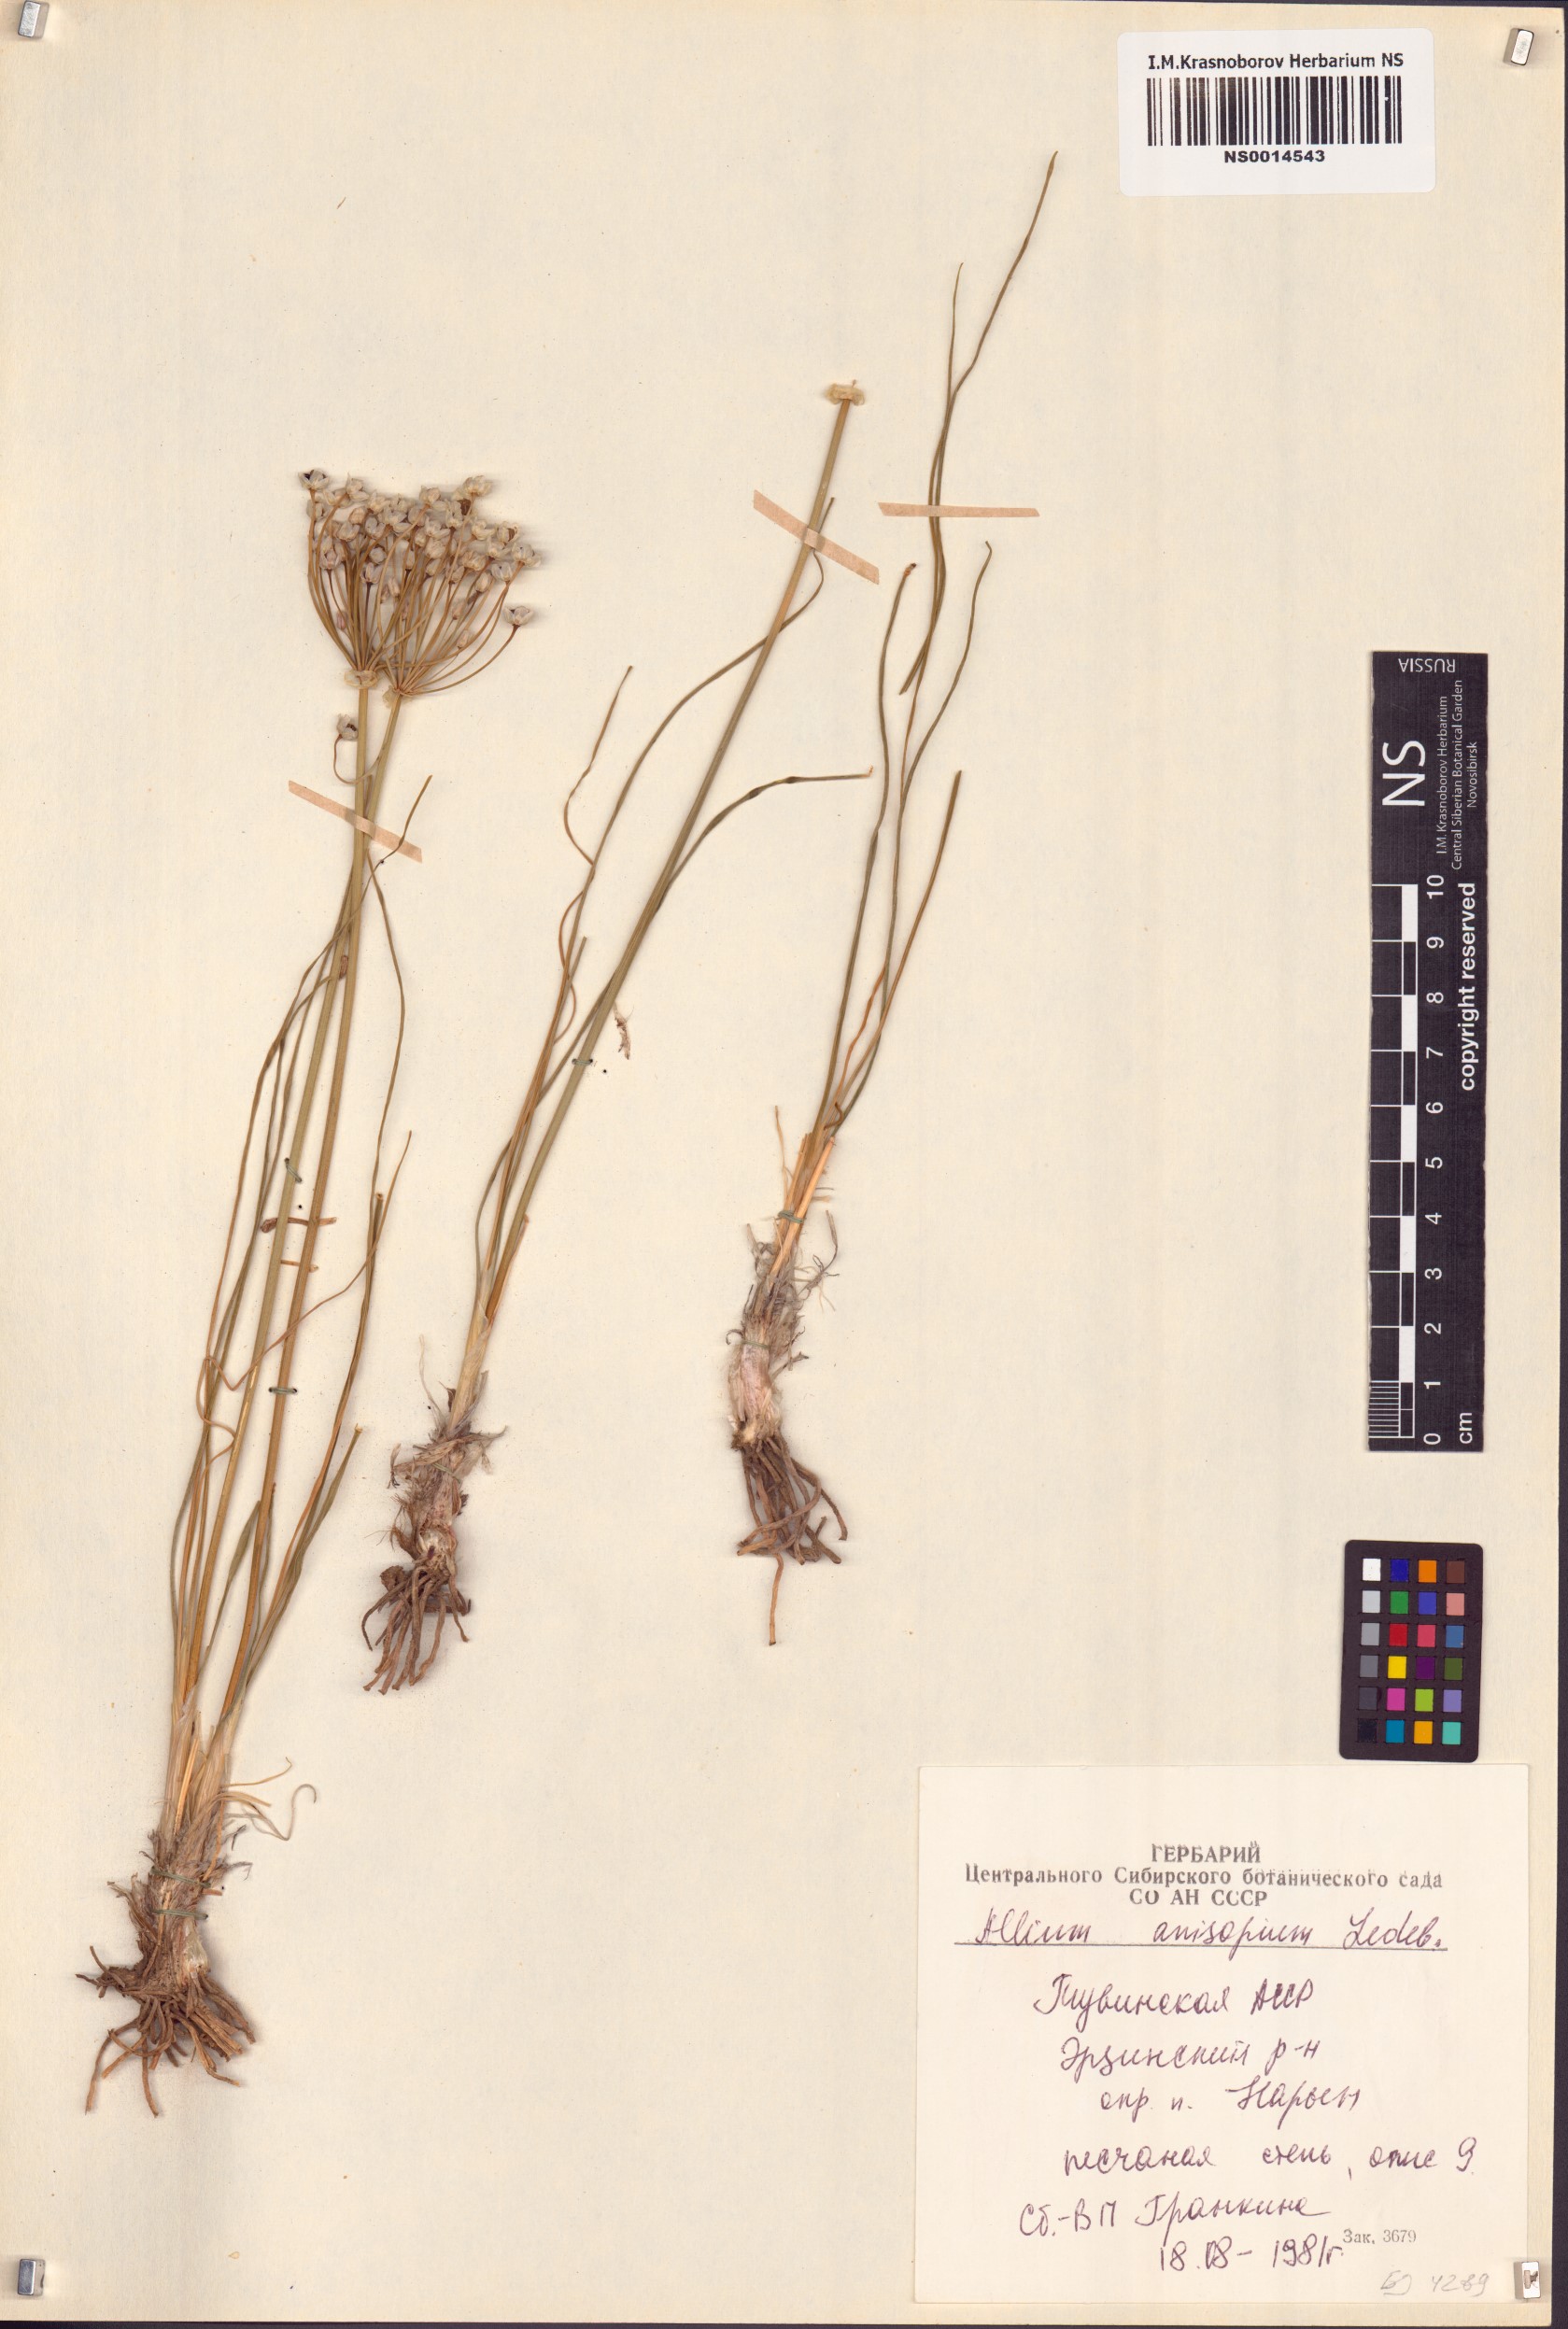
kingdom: Plantae
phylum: Tracheophyta
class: Liliopsida
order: Asparagales
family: Amaryllidaceae
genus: Allium
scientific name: Allium anisopodium
